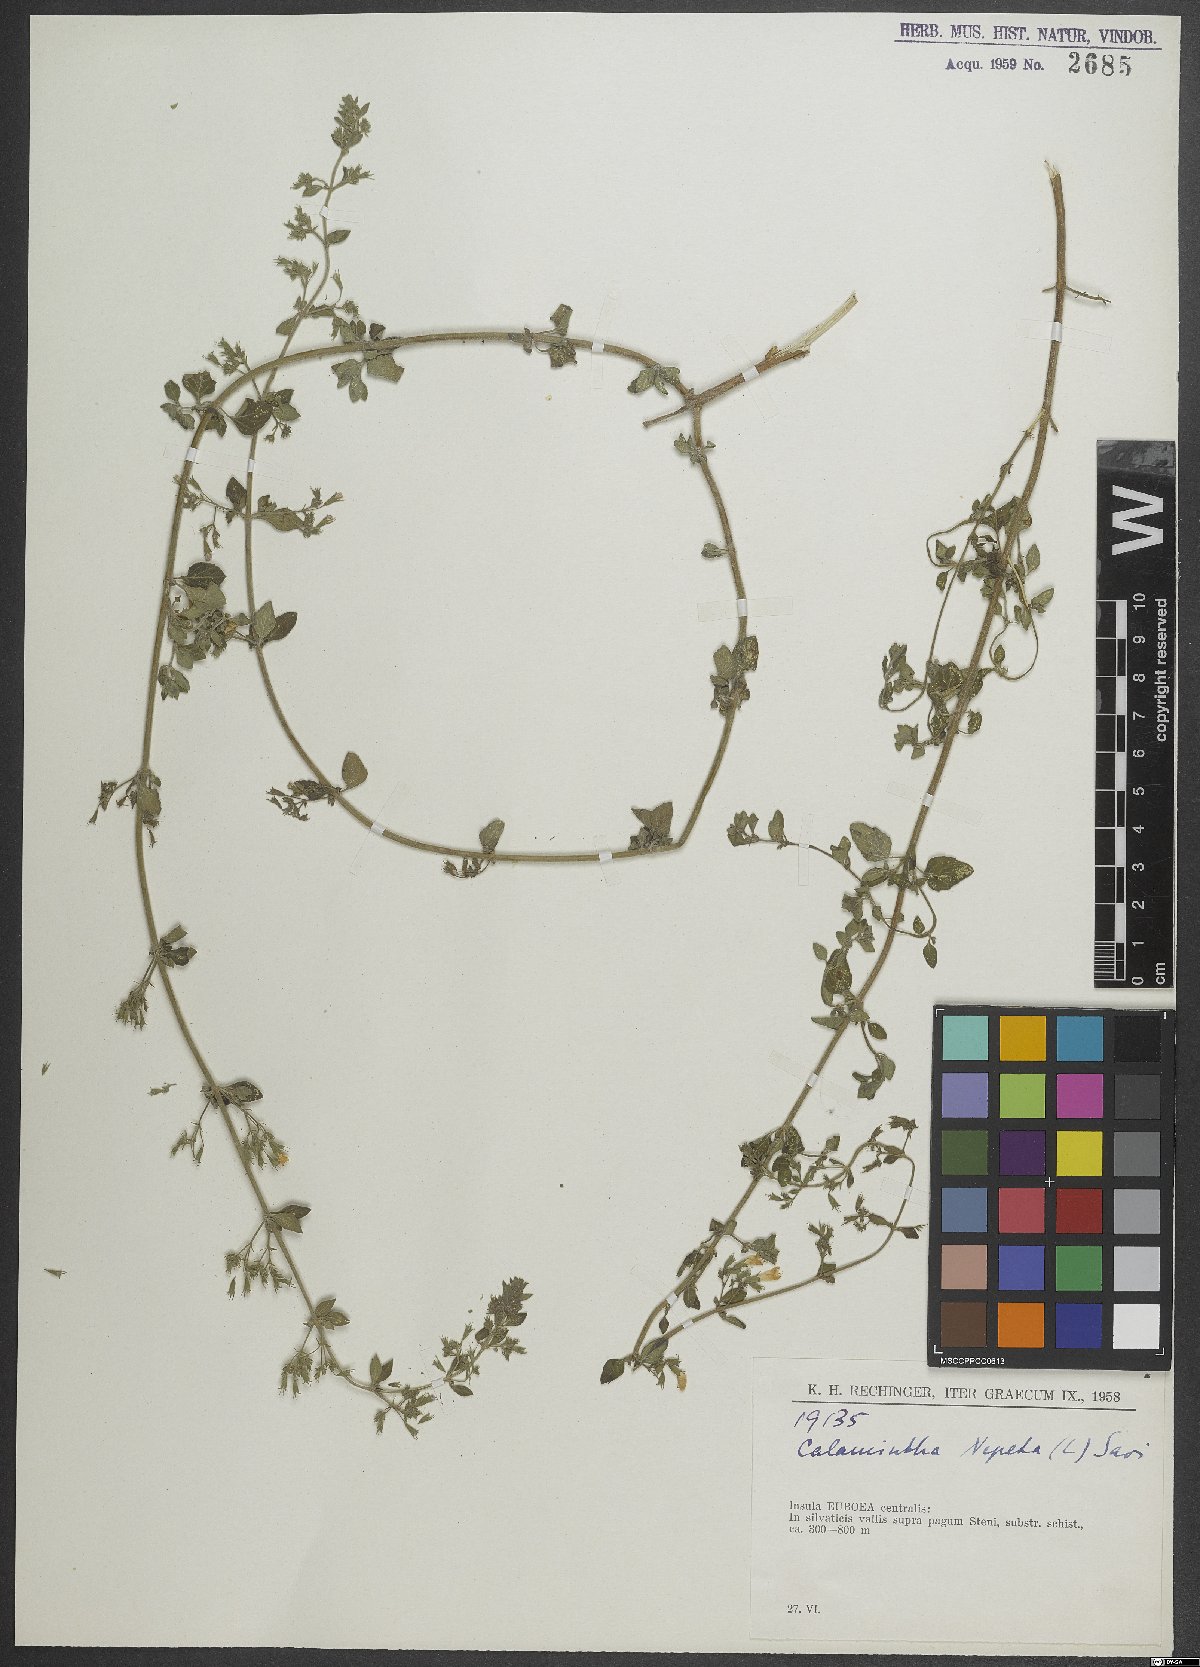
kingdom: Plantae
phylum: Tracheophyta
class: Magnoliopsida
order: Lamiales
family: Lamiaceae
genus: Clinopodium
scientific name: Clinopodium nepeta
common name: Lesser calamint
